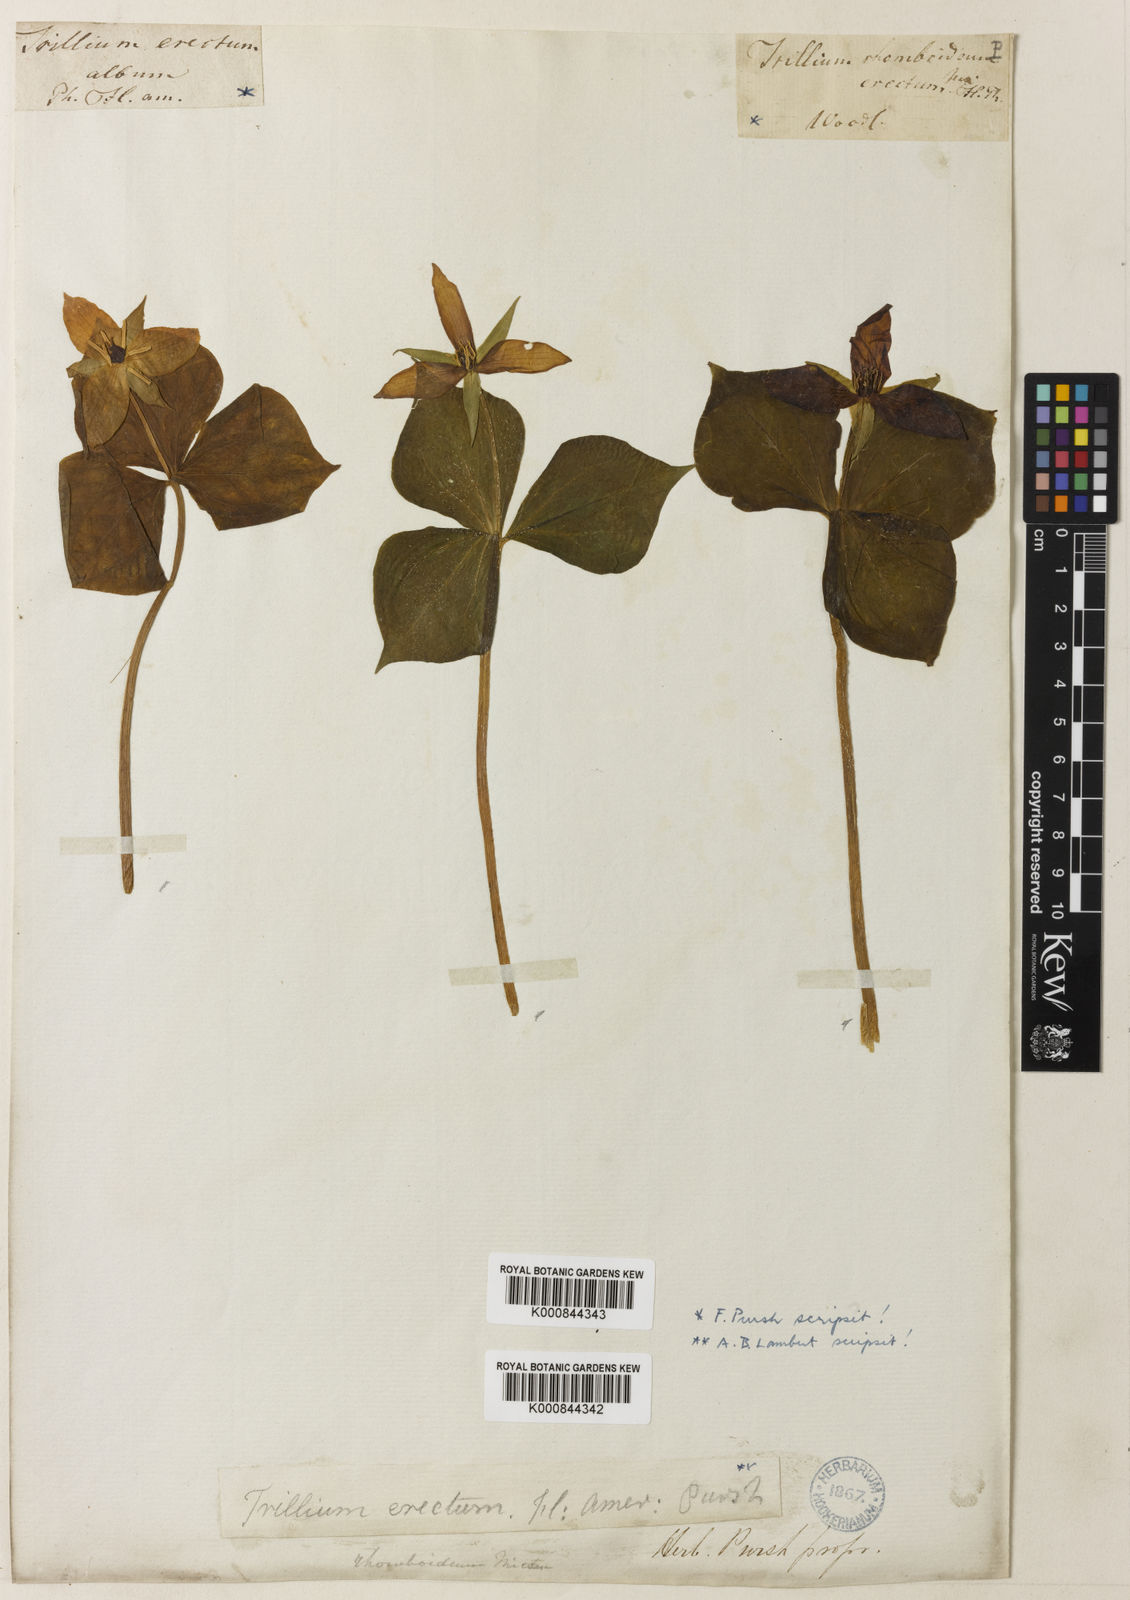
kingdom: Plantae
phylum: Tracheophyta
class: Liliopsida
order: Liliales
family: Melanthiaceae
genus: Trillium
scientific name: Trillium erectum
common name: Purple trillium
